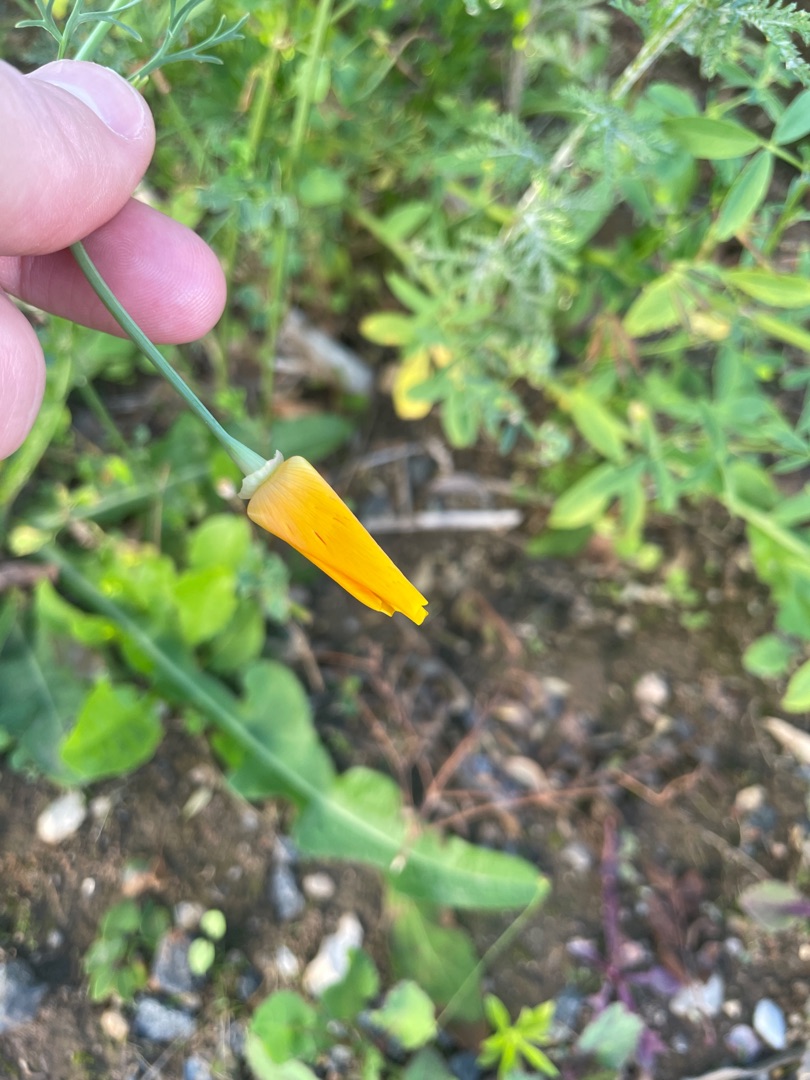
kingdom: Plantae
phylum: Tracheophyta
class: Magnoliopsida
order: Ranunculales
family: Papaveraceae
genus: Eschscholzia
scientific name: Eschscholzia californica
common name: Guldvalmue
